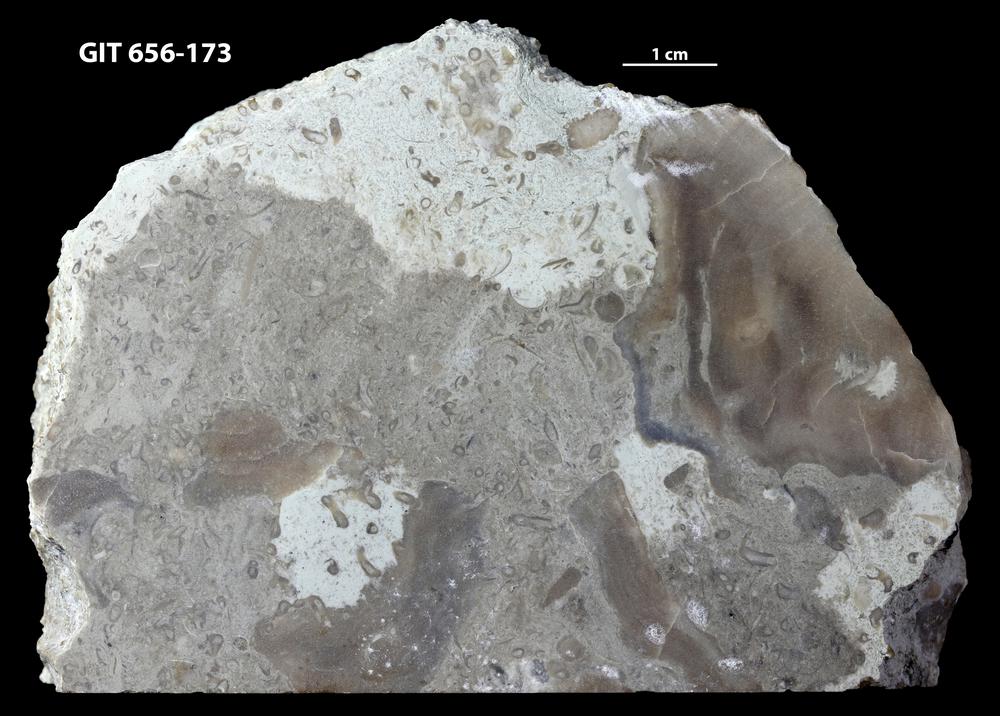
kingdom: Animalia
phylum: Porifera
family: Stromatoporidae
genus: Stromatopora
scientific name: Stromatopora
